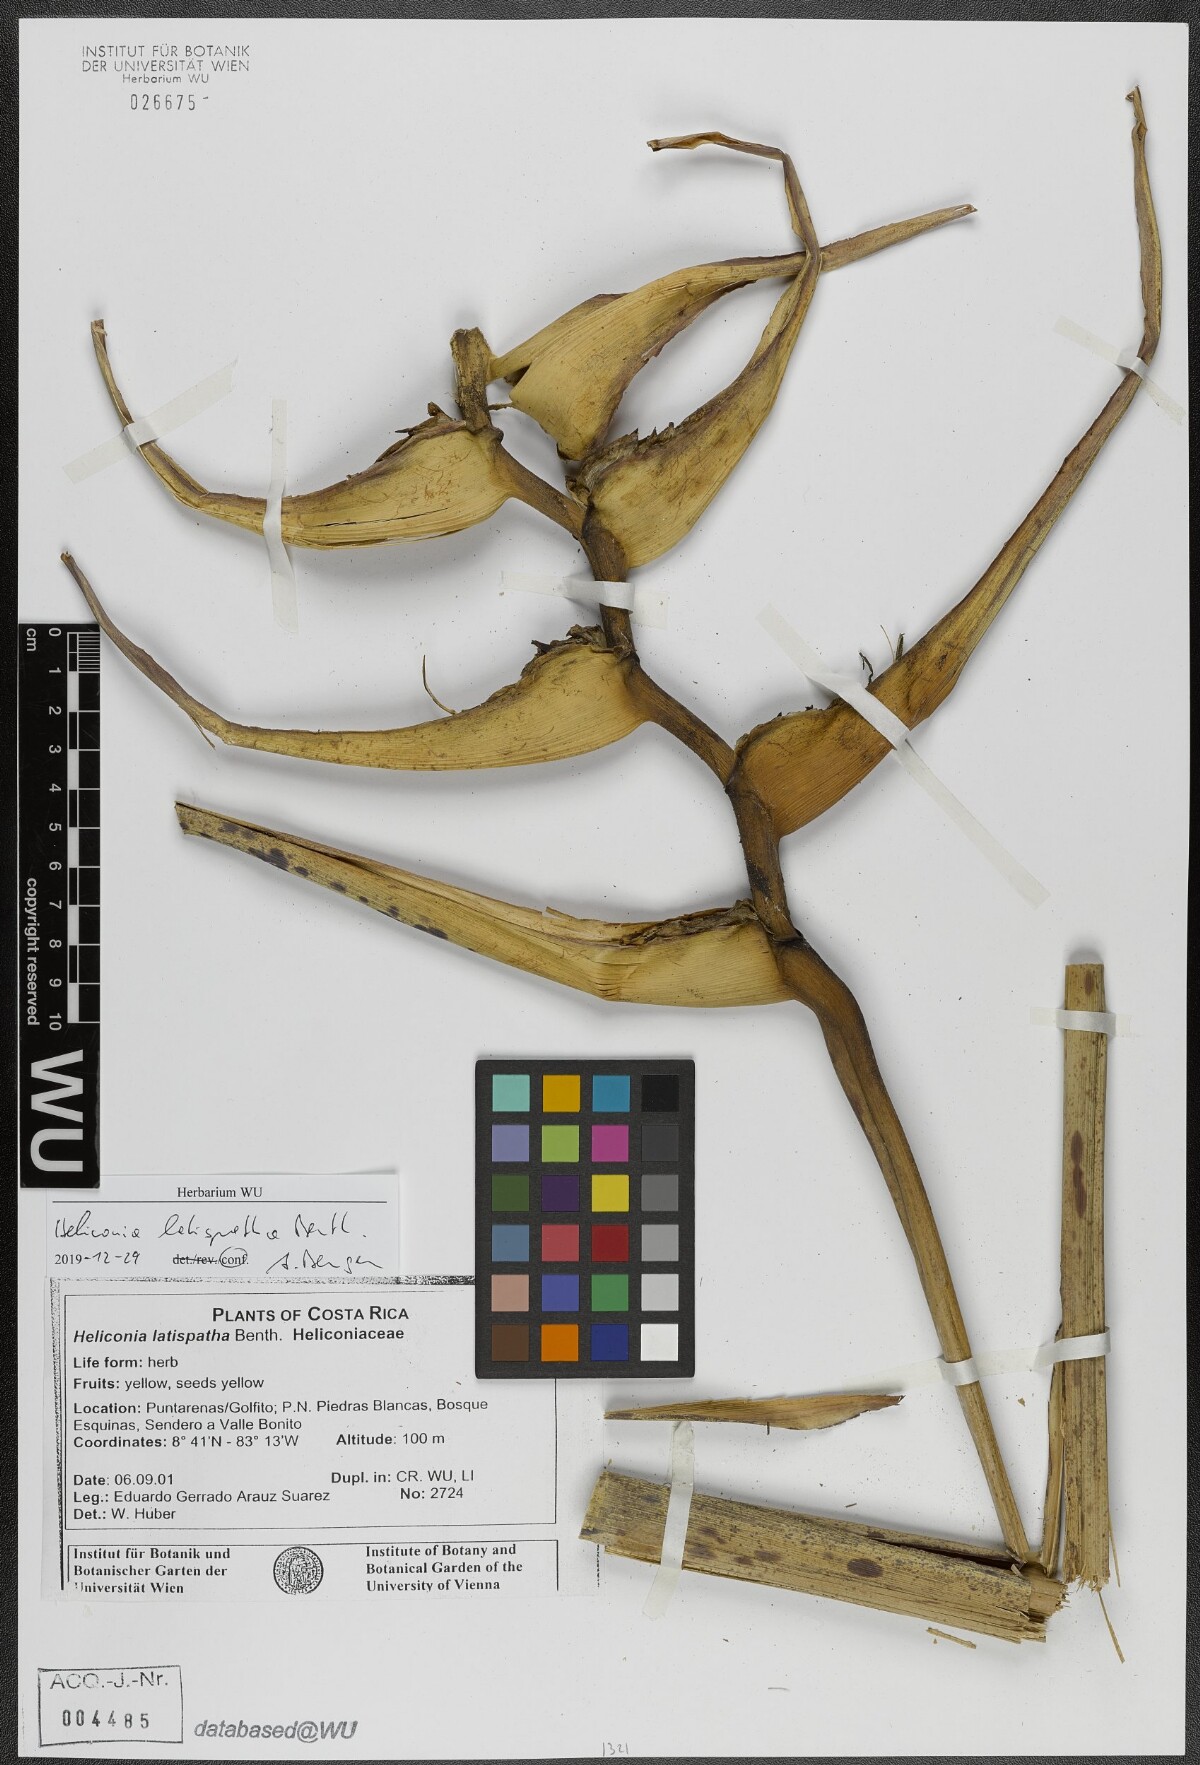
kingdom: Plantae
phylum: Tracheophyta
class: Liliopsida
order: Zingiberales
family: Heliconiaceae
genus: Heliconia
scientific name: Heliconia latispatha
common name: Expanded lobsterclaw
